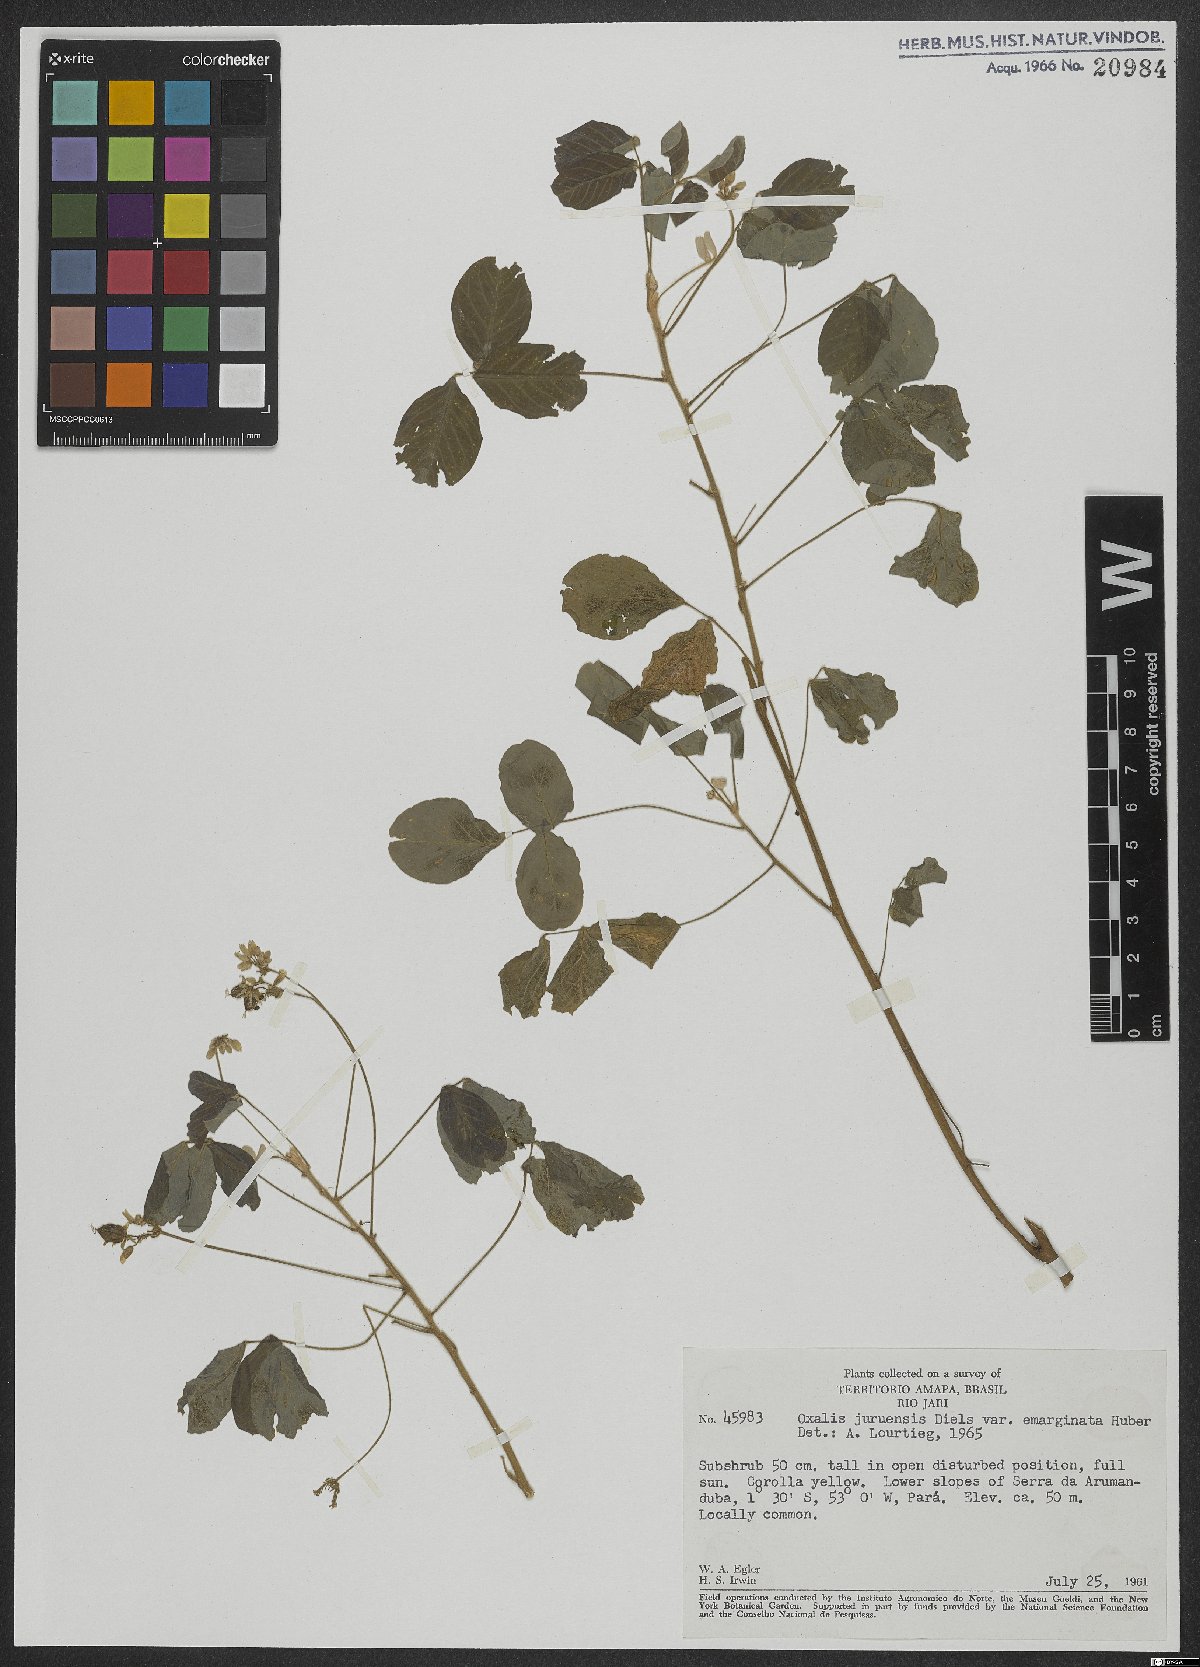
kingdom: Plantae
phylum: Tracheophyta
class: Magnoliopsida
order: Oxalidales
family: Oxalidaceae
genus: Oxalis
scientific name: Oxalis juruensis
